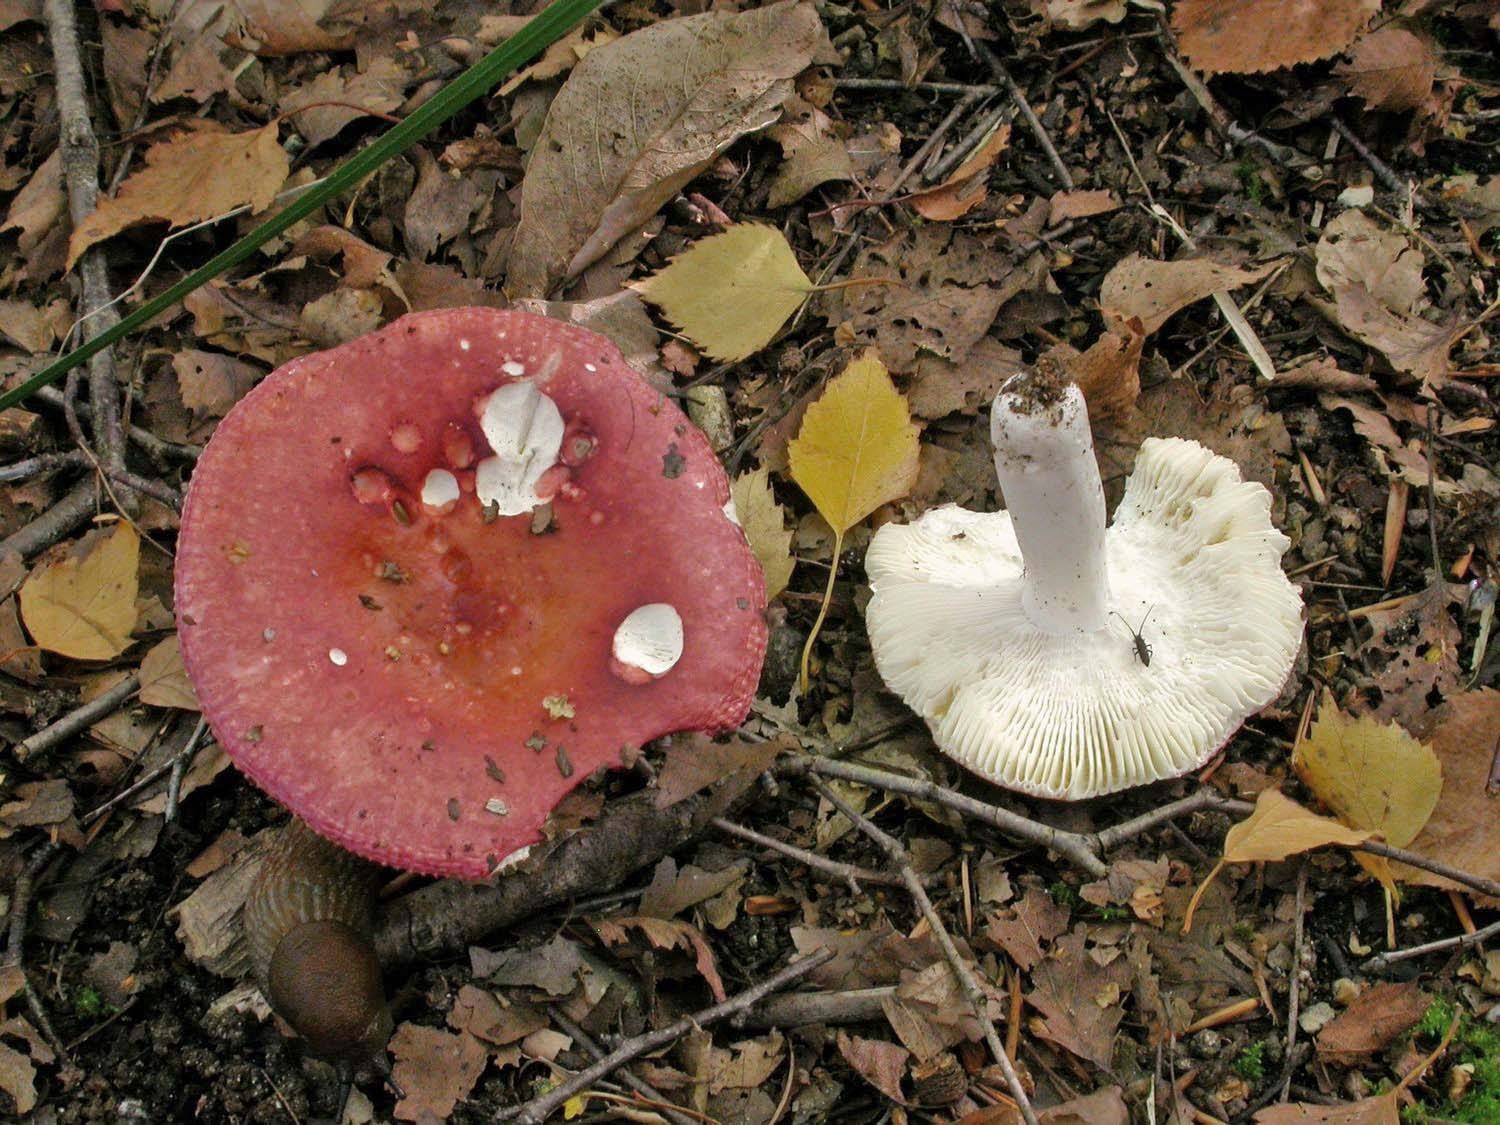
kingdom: Fungi
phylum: Basidiomycota
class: Agaricomycetes
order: Russulales
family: Russulaceae
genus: Russula
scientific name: Russula velenovskyi
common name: orangerød skørhat
